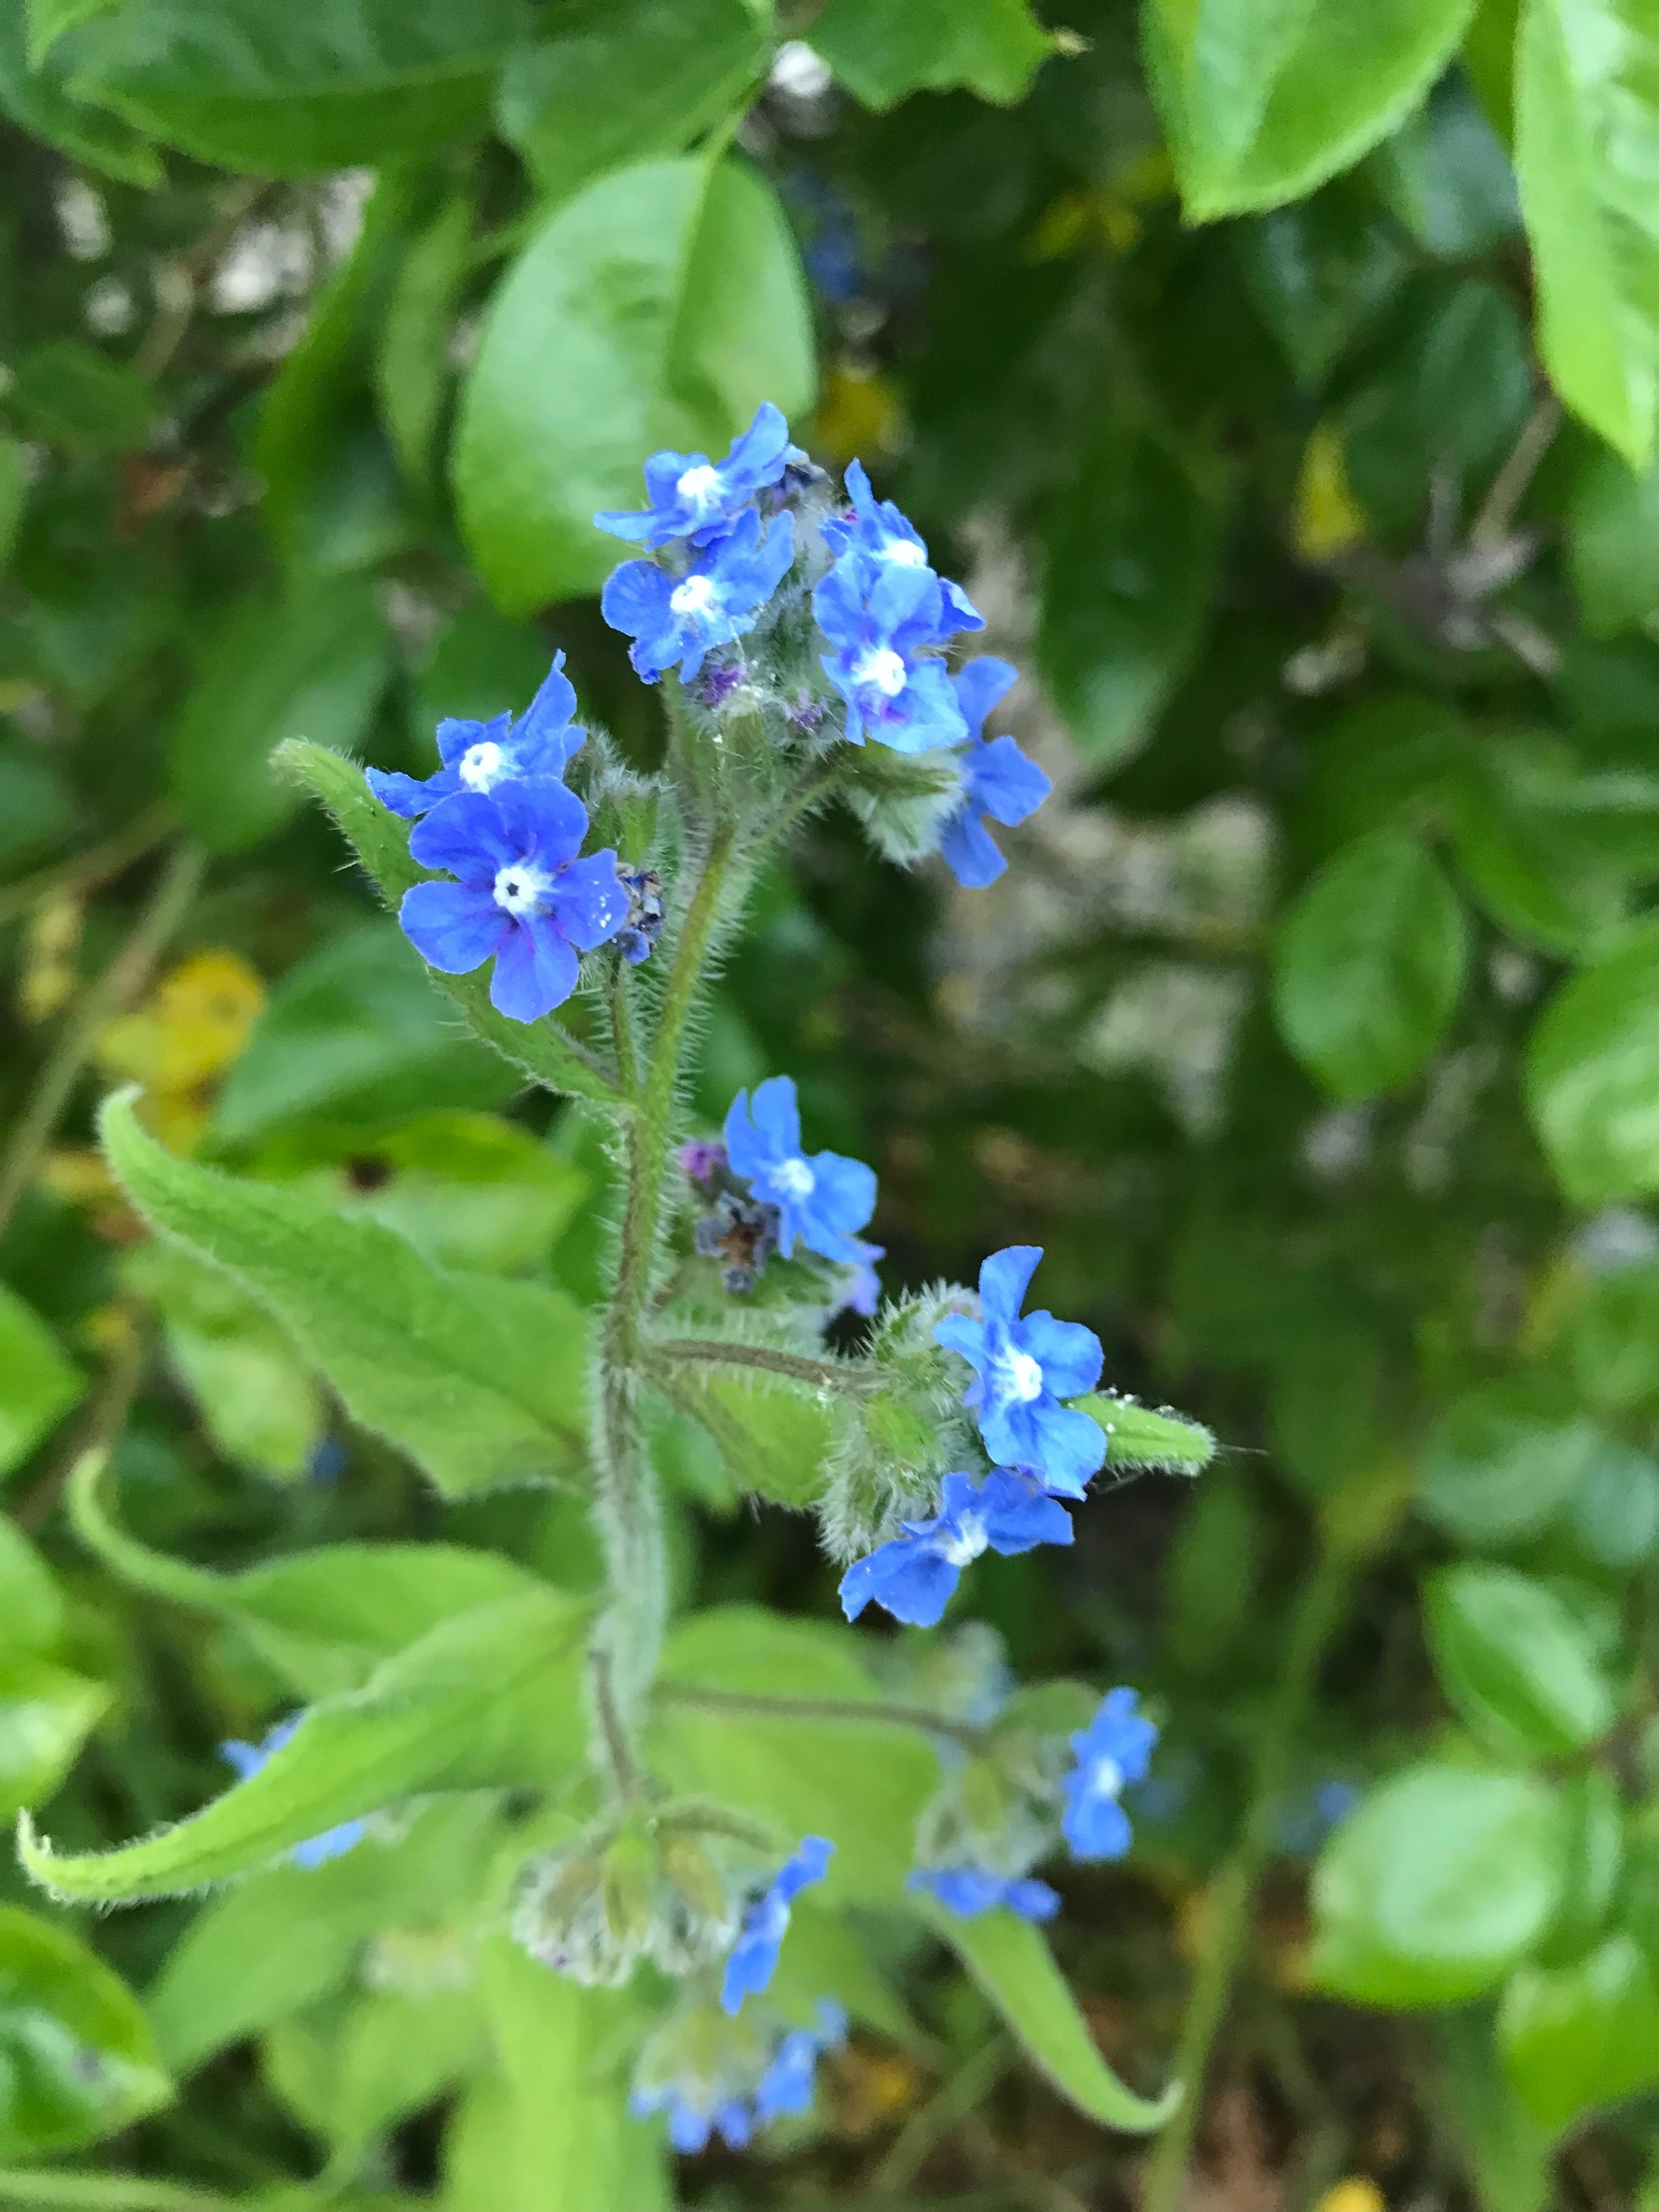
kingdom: Plantae
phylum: Tracheophyta
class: Magnoliopsida
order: Boraginales
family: Boraginaceae
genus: Pentaglottis
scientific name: Pentaglottis sempervirens
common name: Femtunge
